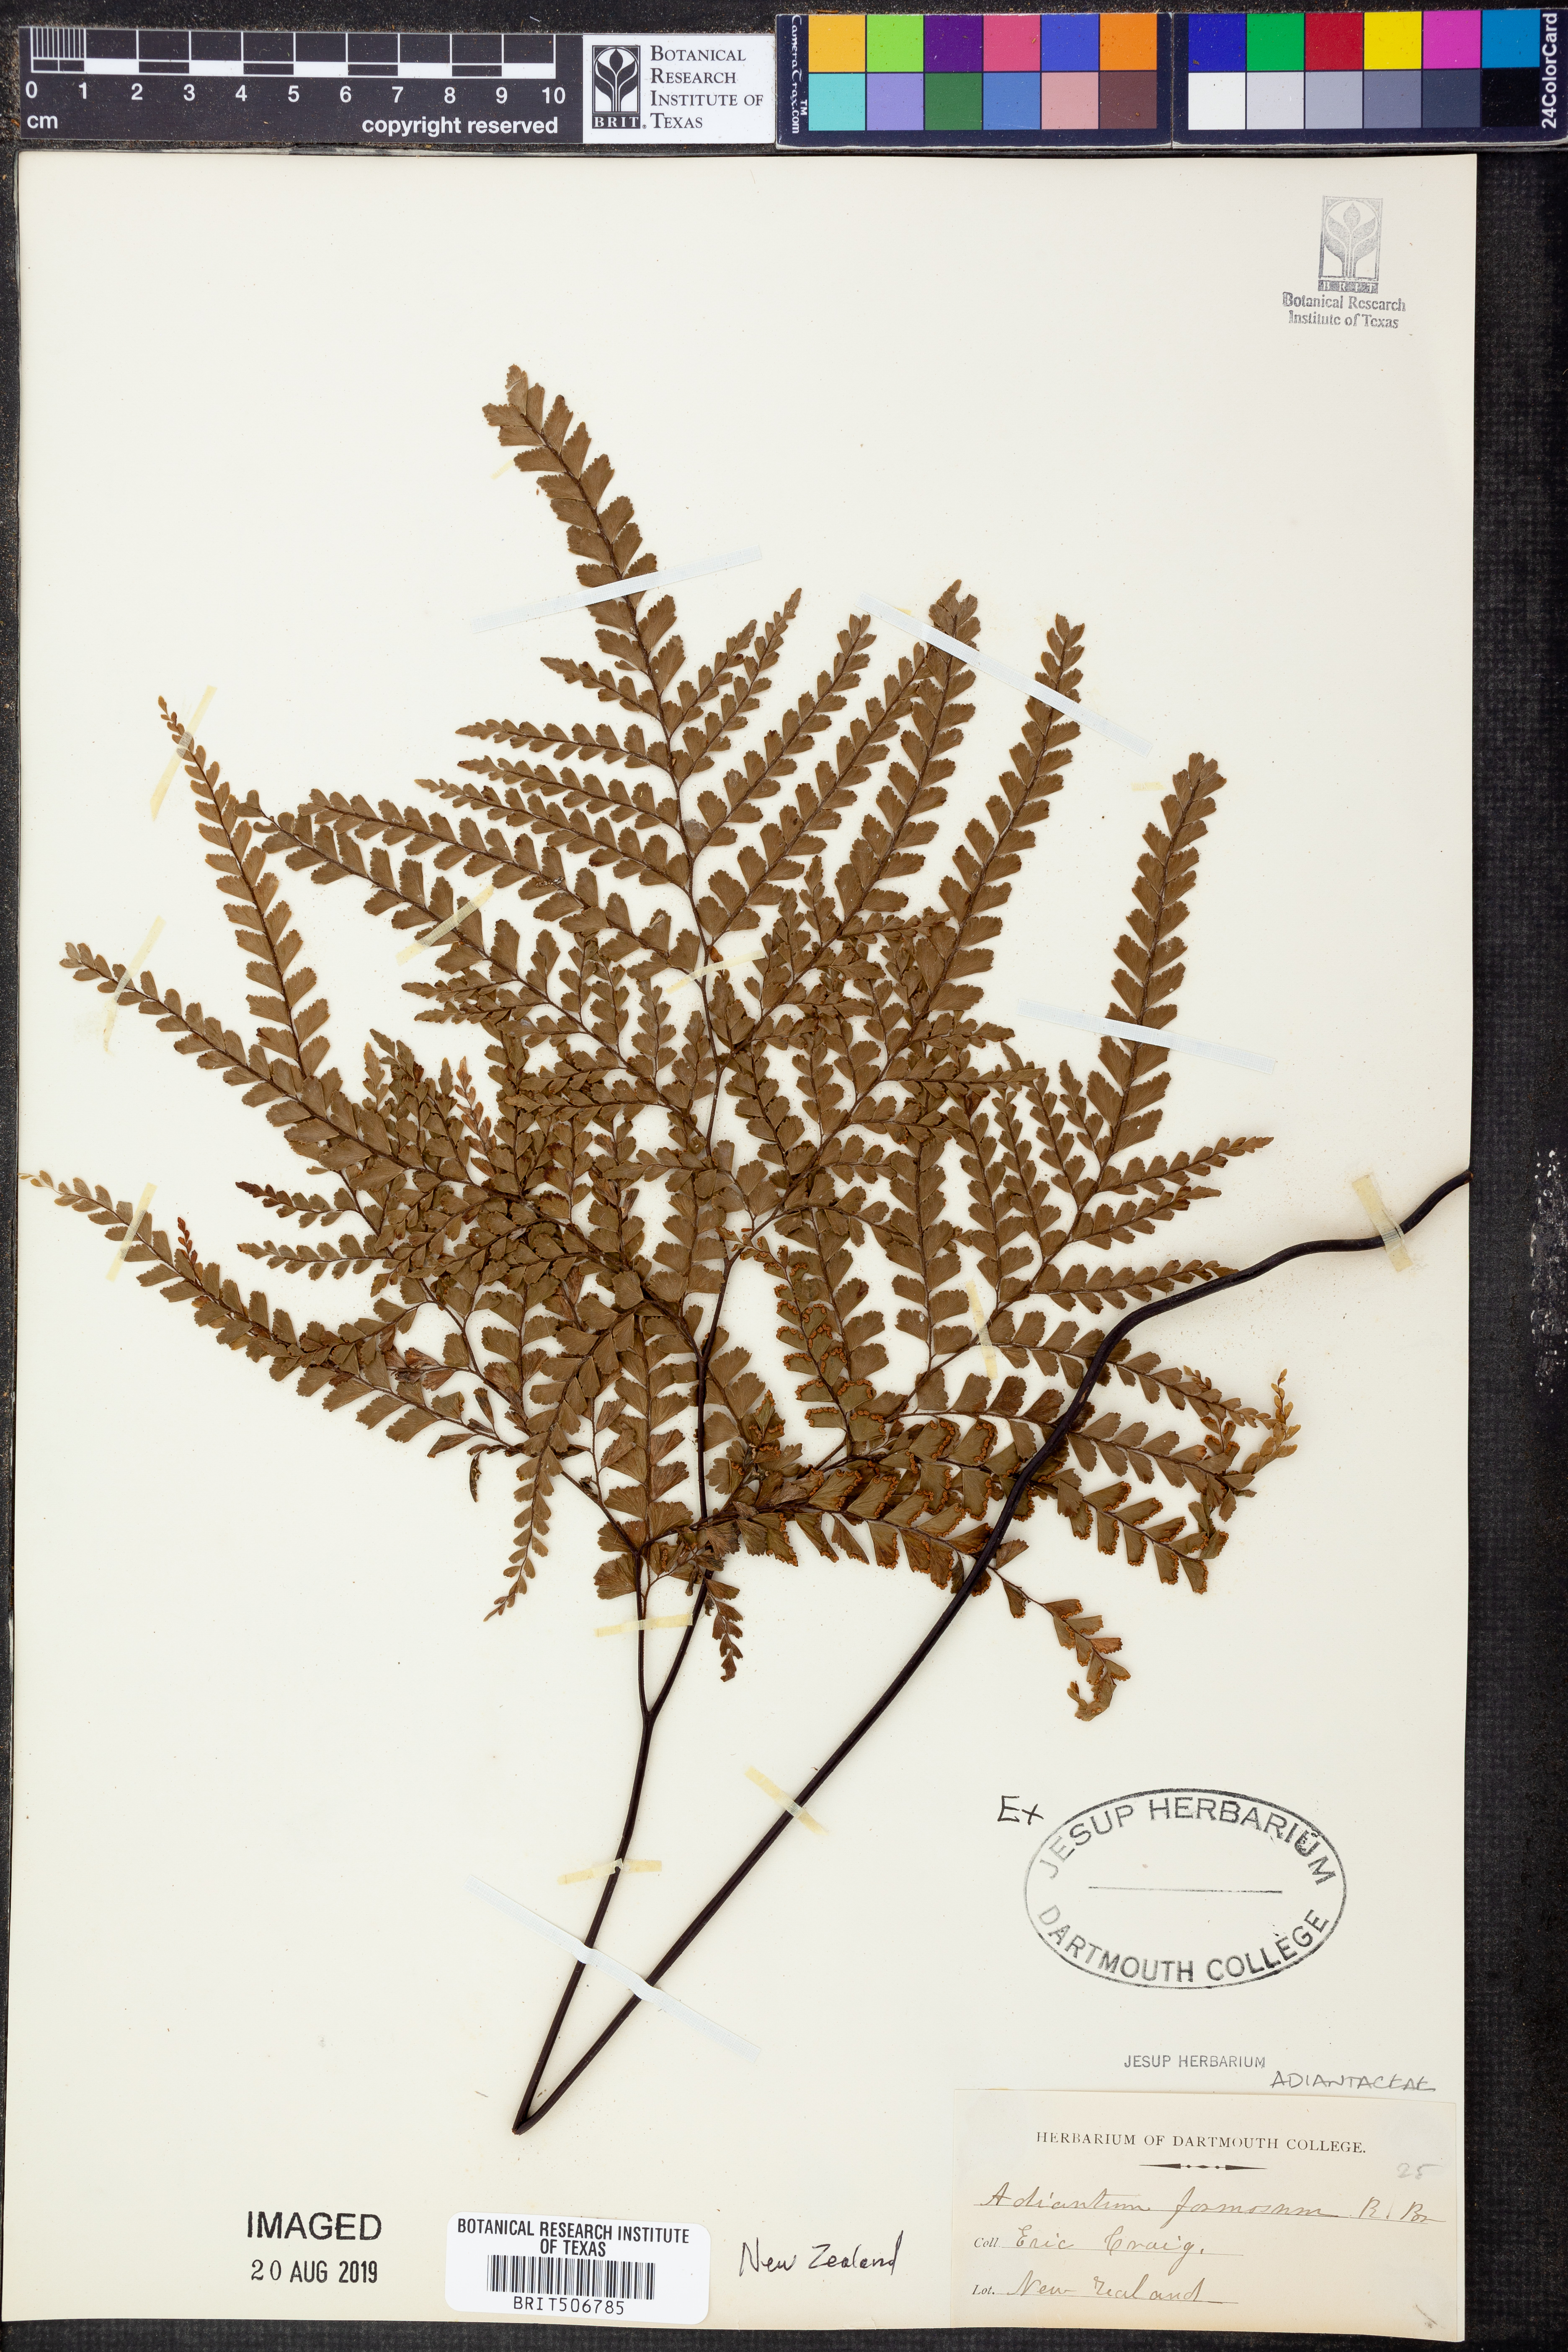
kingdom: Plantae
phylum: Tracheophyta
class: Polypodiopsida
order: Polypodiales
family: Pteridaceae
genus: Adiantum
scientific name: Adiantum formosum
